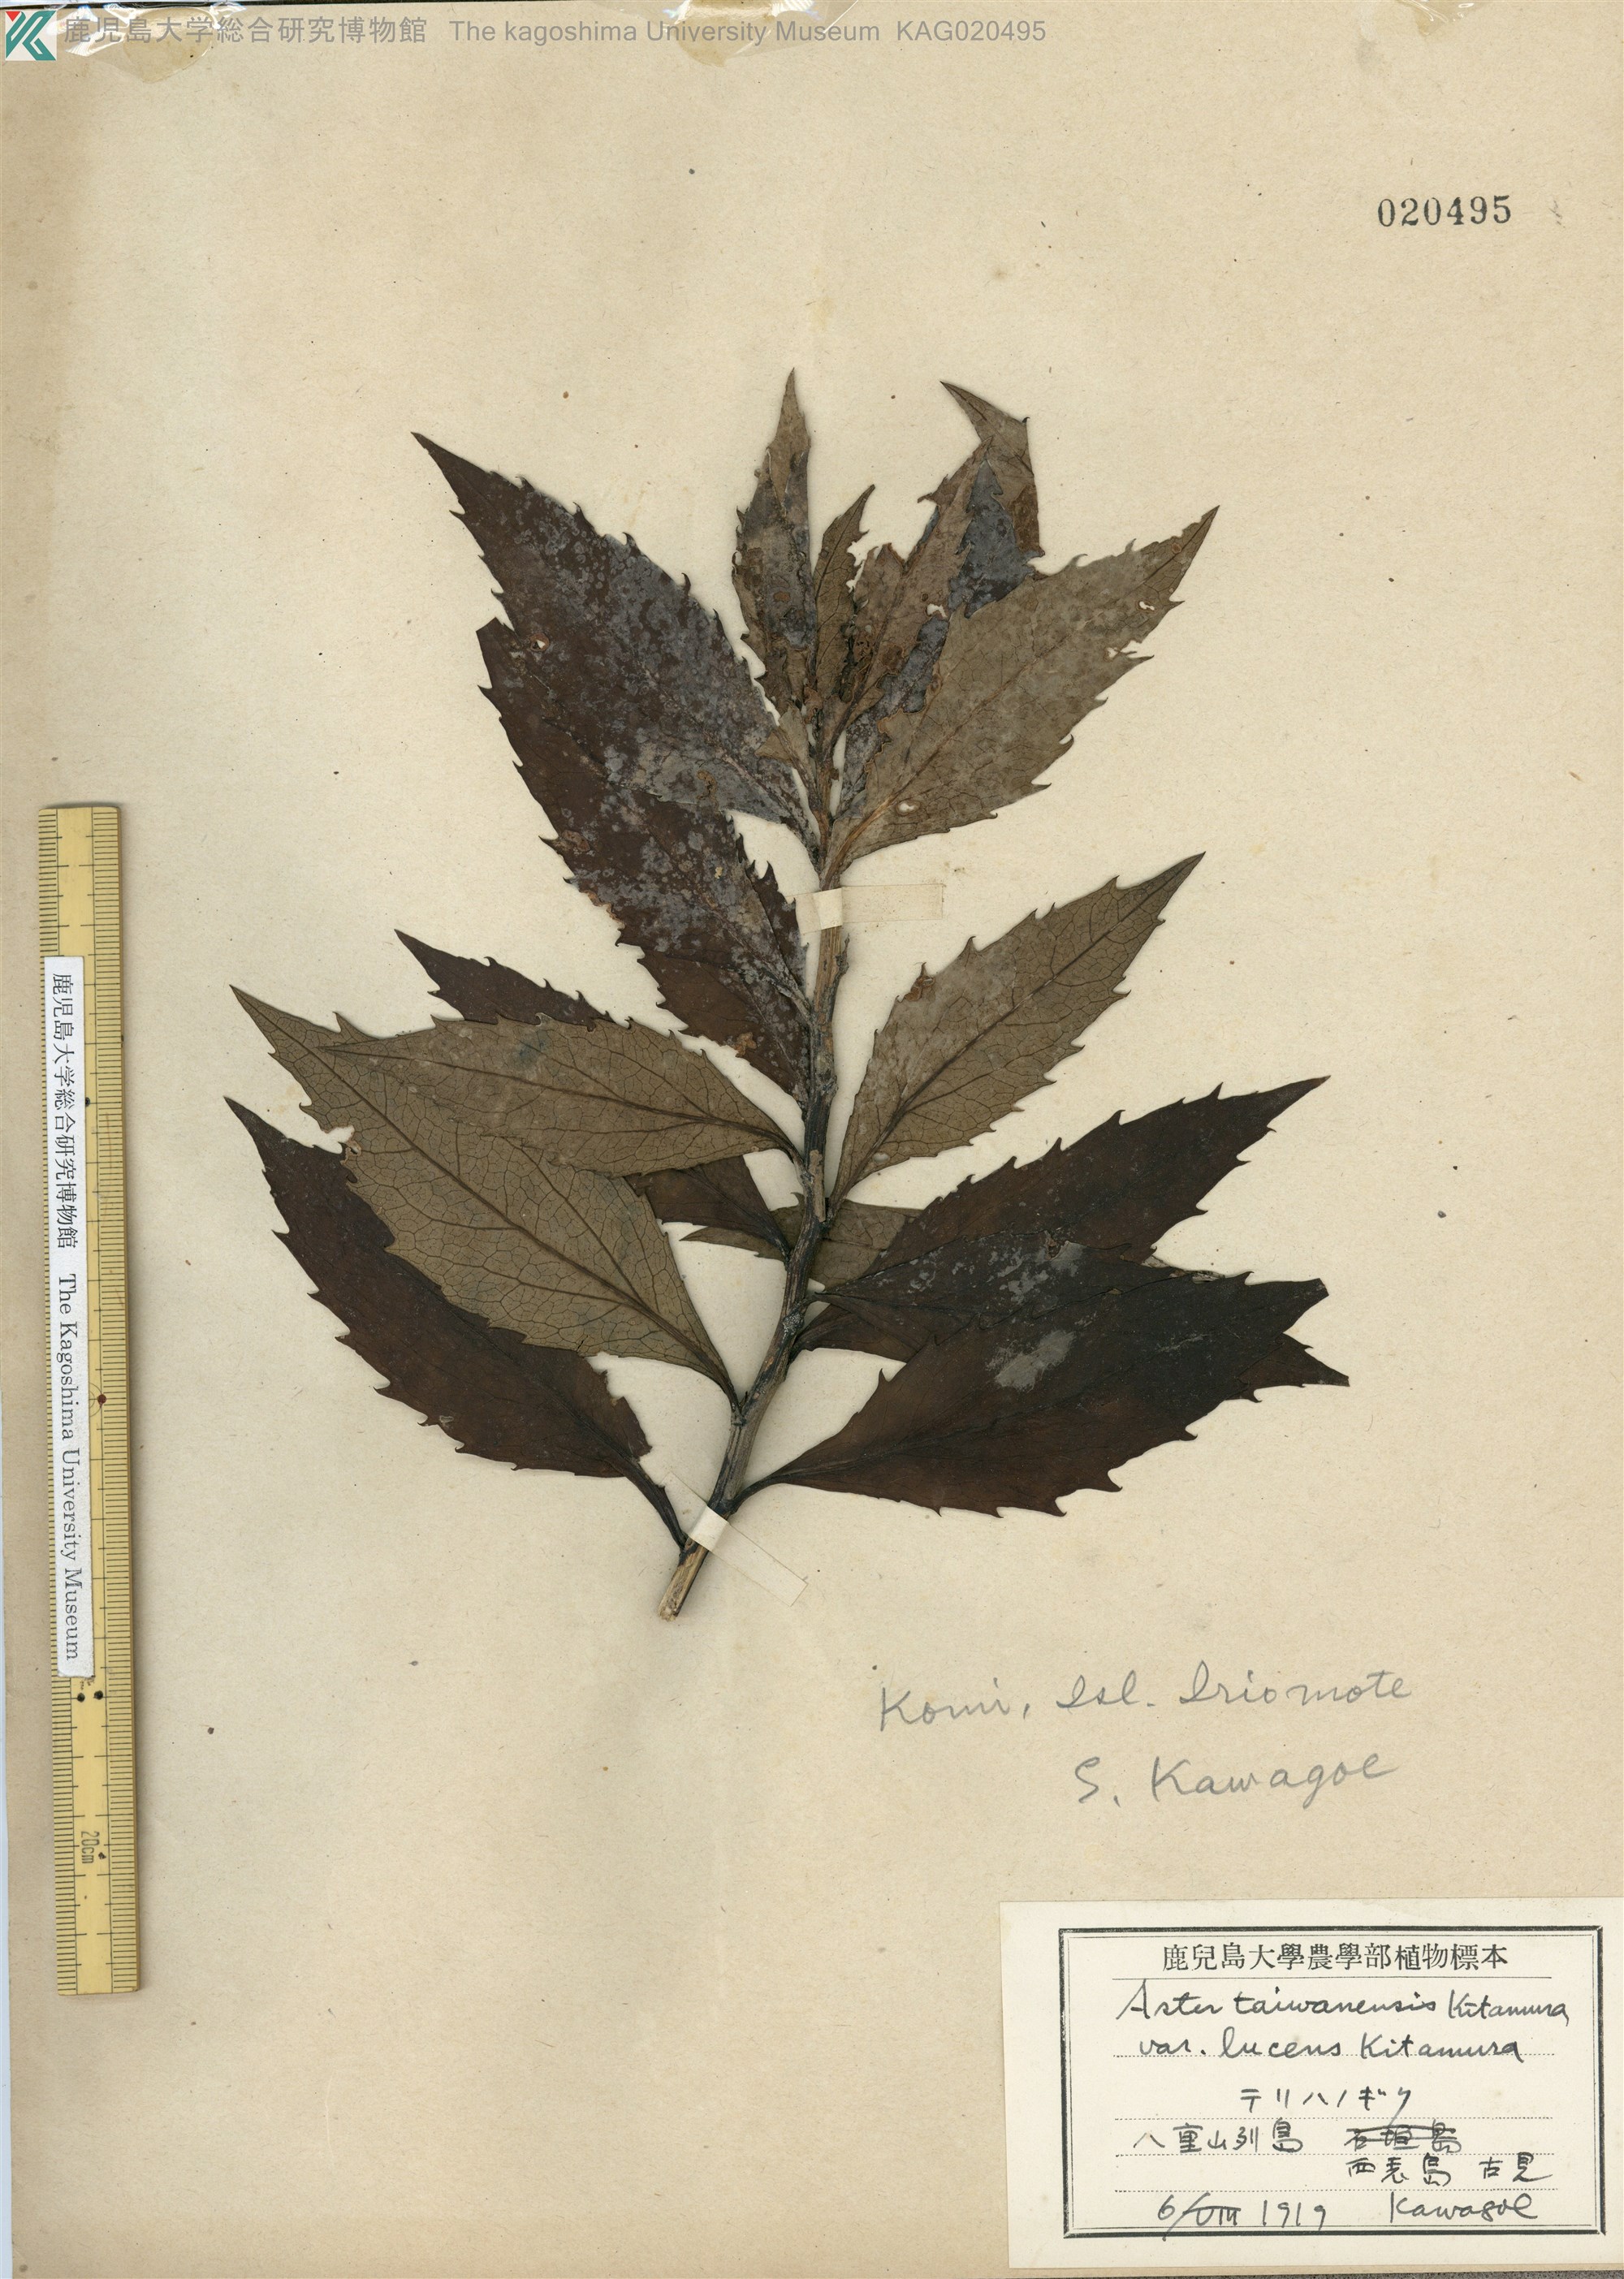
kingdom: Plantae
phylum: Tracheophyta
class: Magnoliopsida
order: Asterales
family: Asteraceae
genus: Aster
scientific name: Aster taiwanensis
